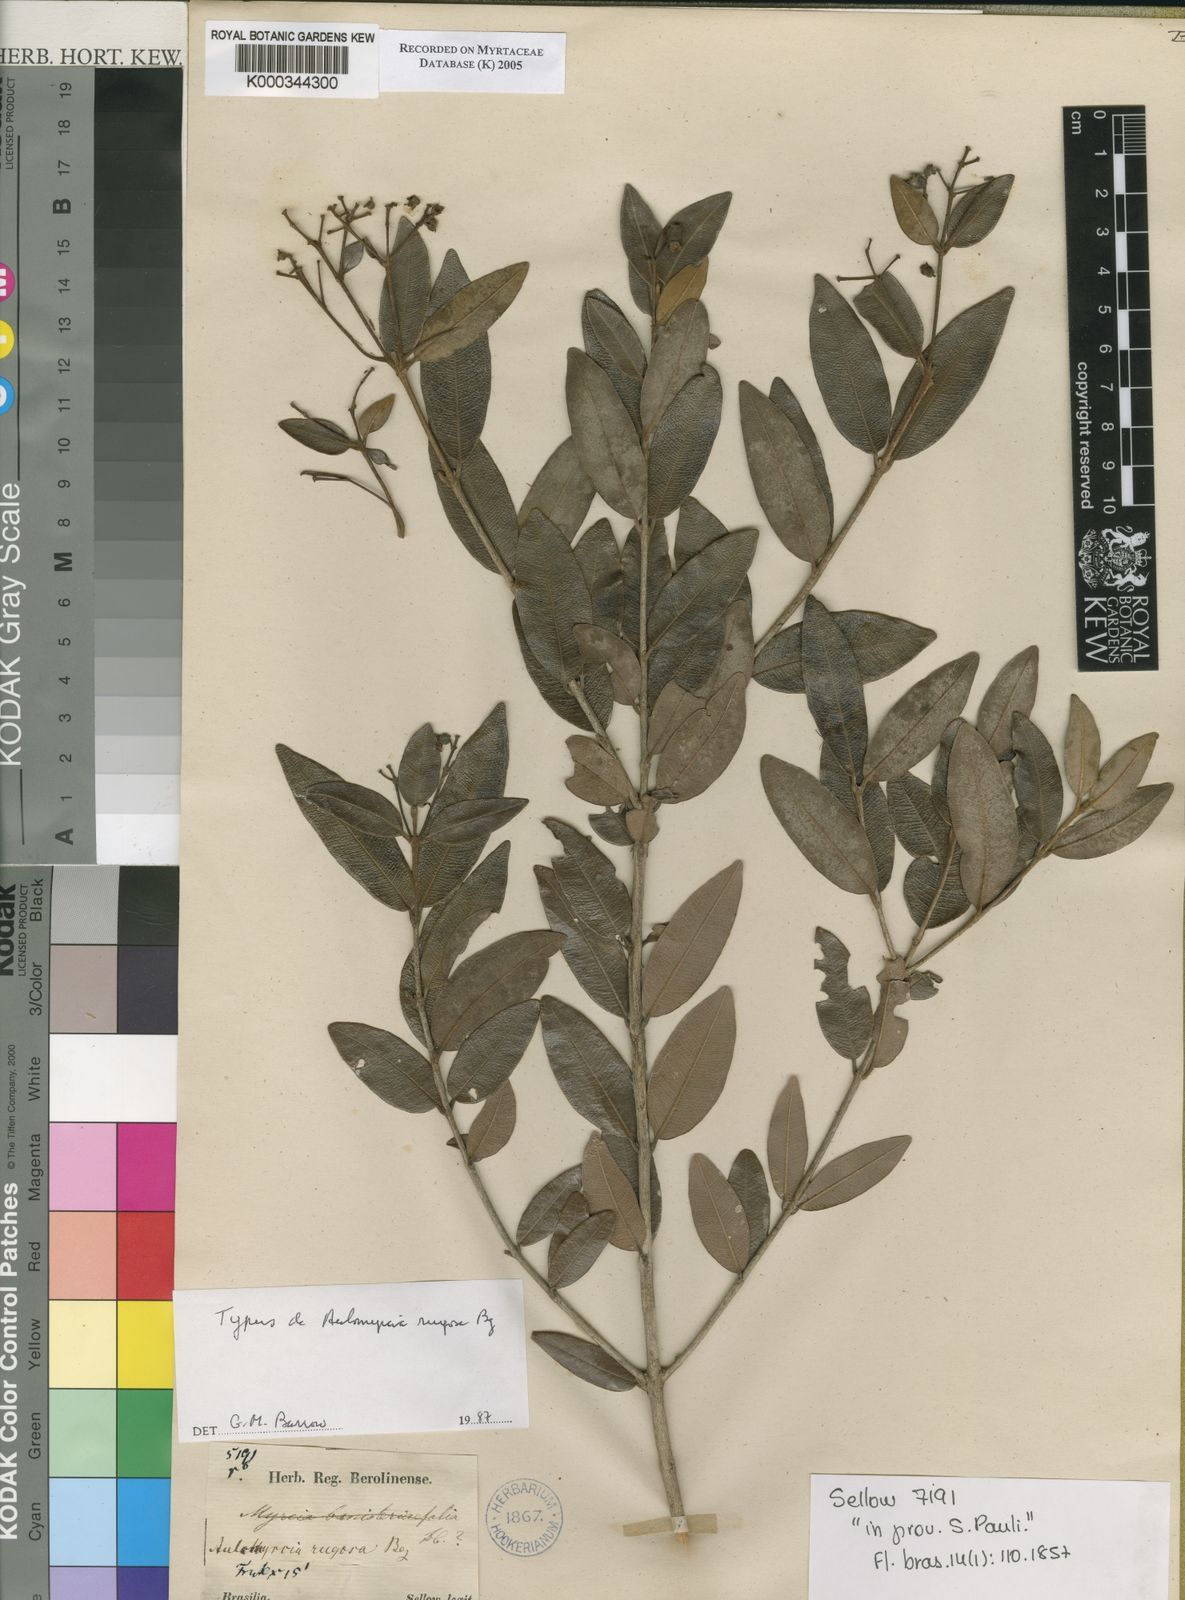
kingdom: Plantae
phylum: Tracheophyta
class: Magnoliopsida
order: Myrtales
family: Myrtaceae
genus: Myrcia
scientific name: Myrcia venulosa
